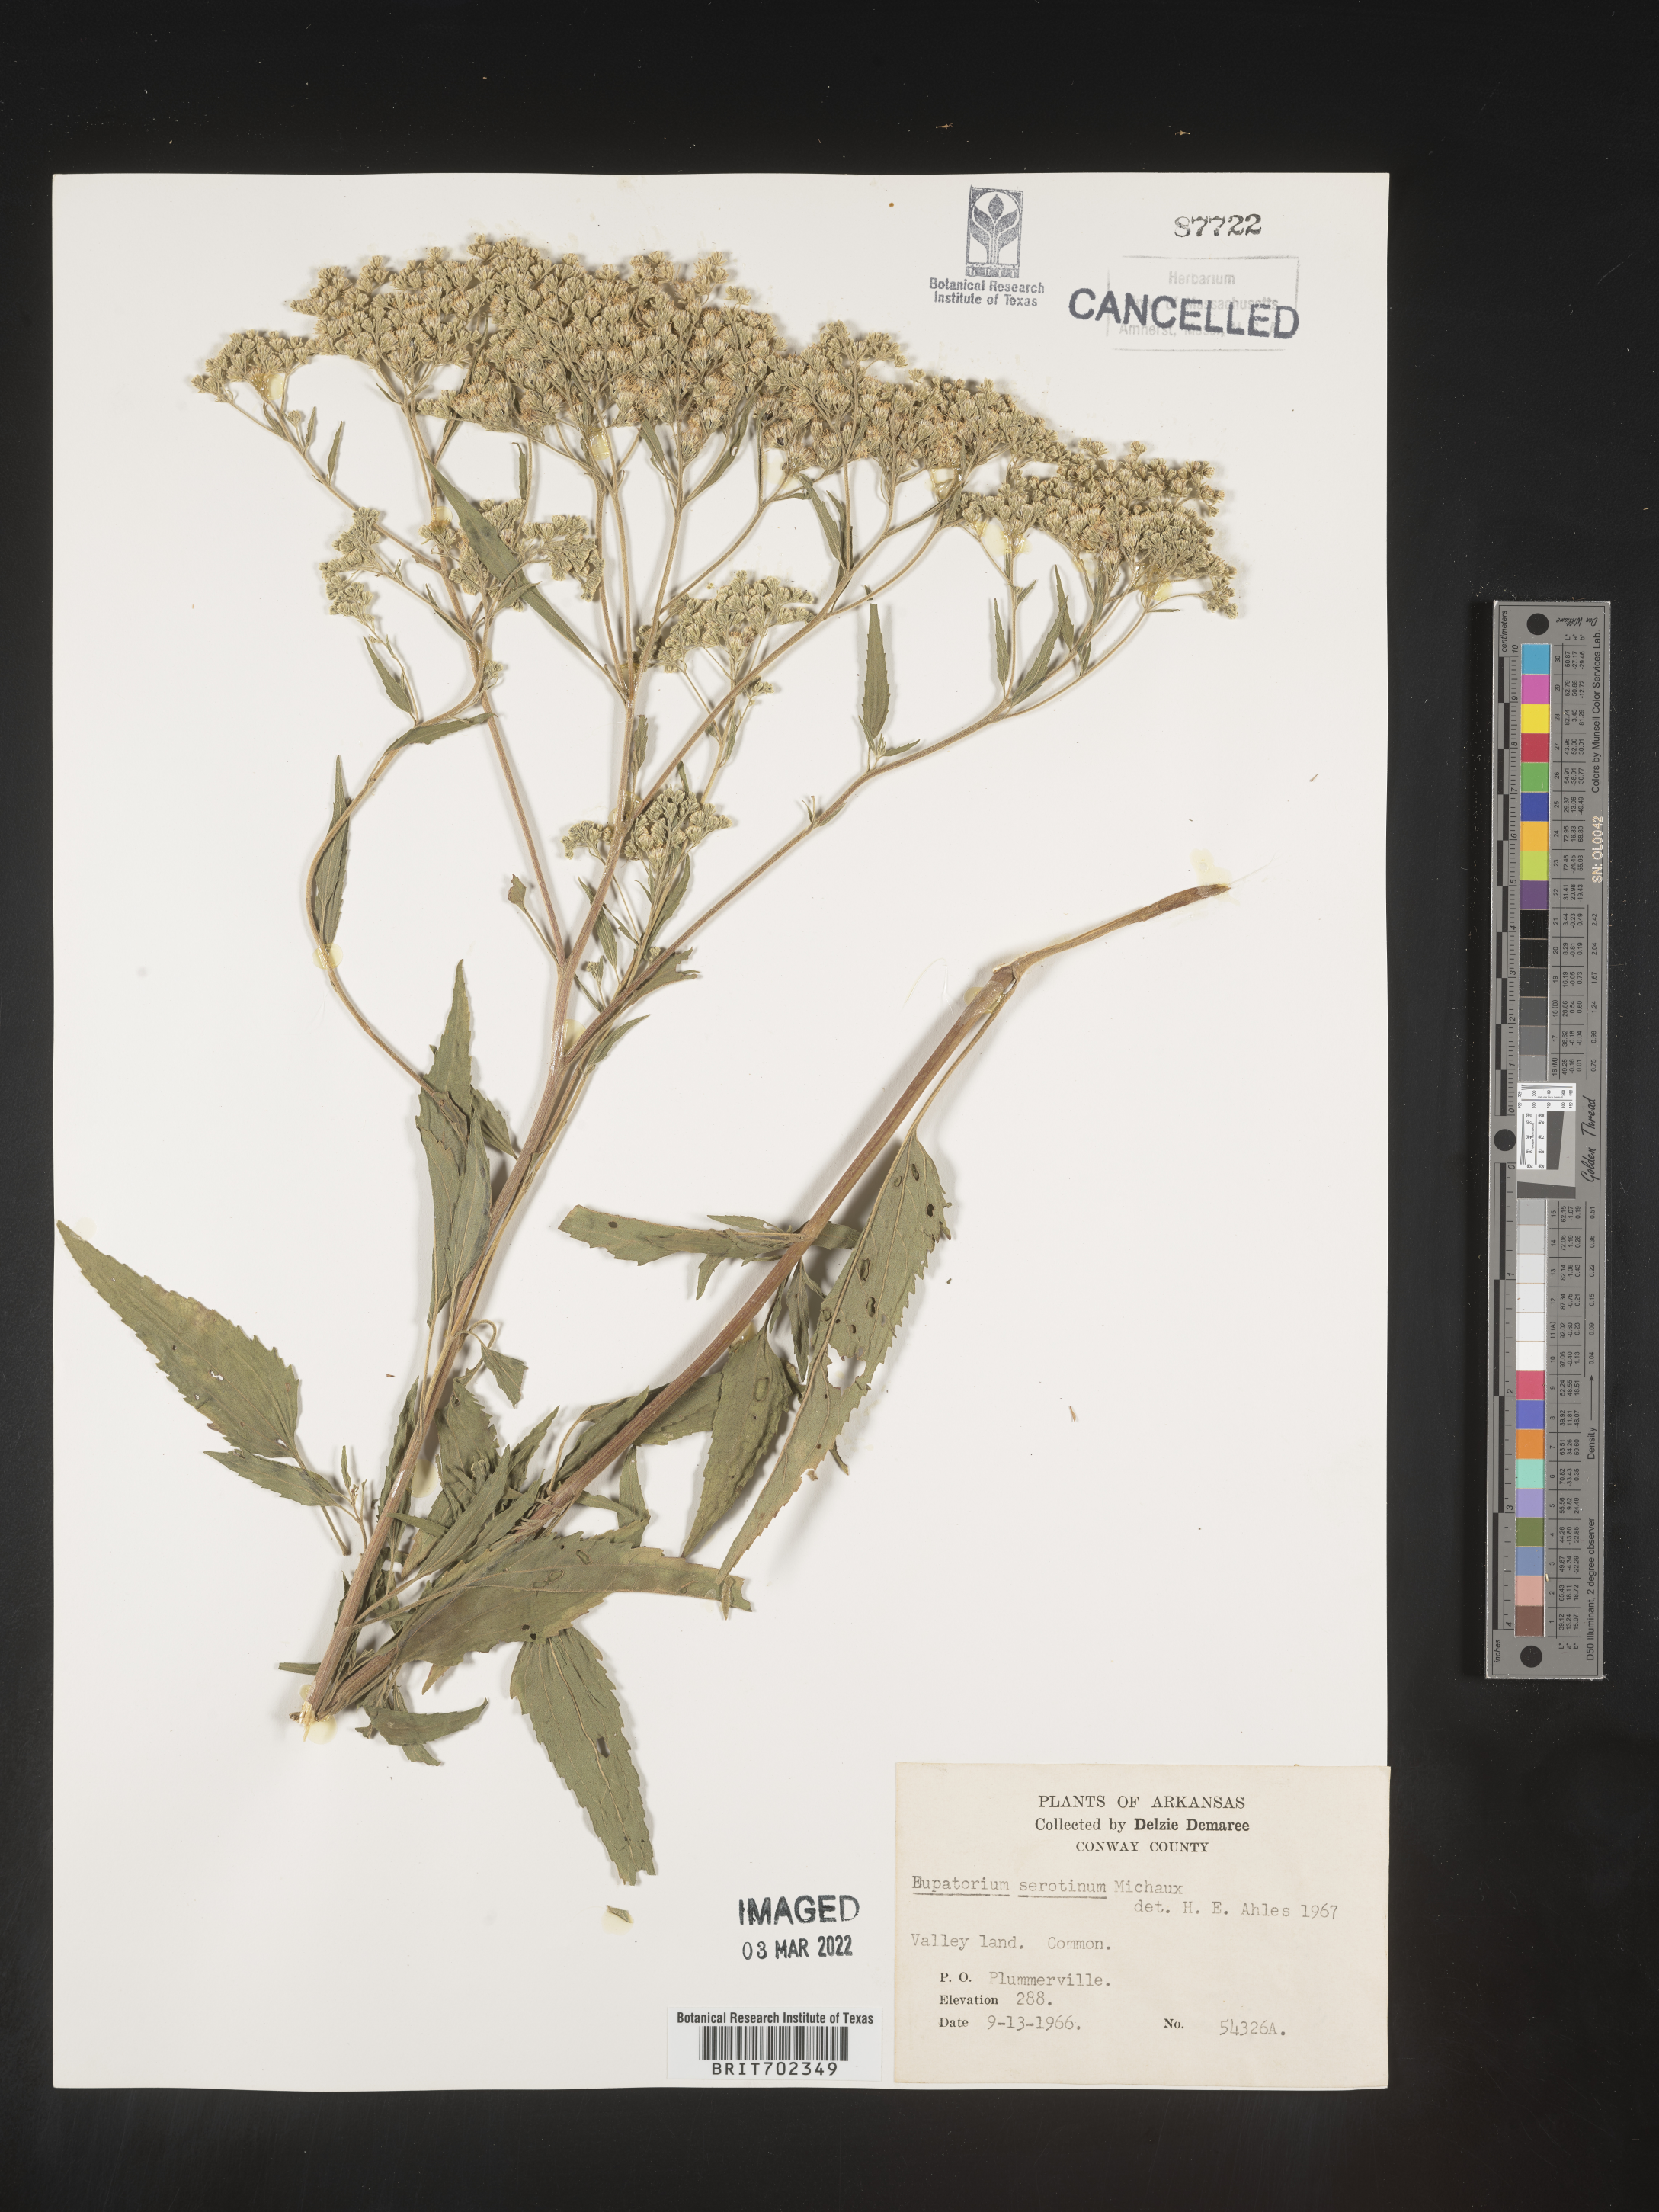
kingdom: Plantae
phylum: Tracheophyta
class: Magnoliopsida
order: Asterales
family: Asteraceae
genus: Eupatorium
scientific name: Eupatorium serotinum
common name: Late boneset
